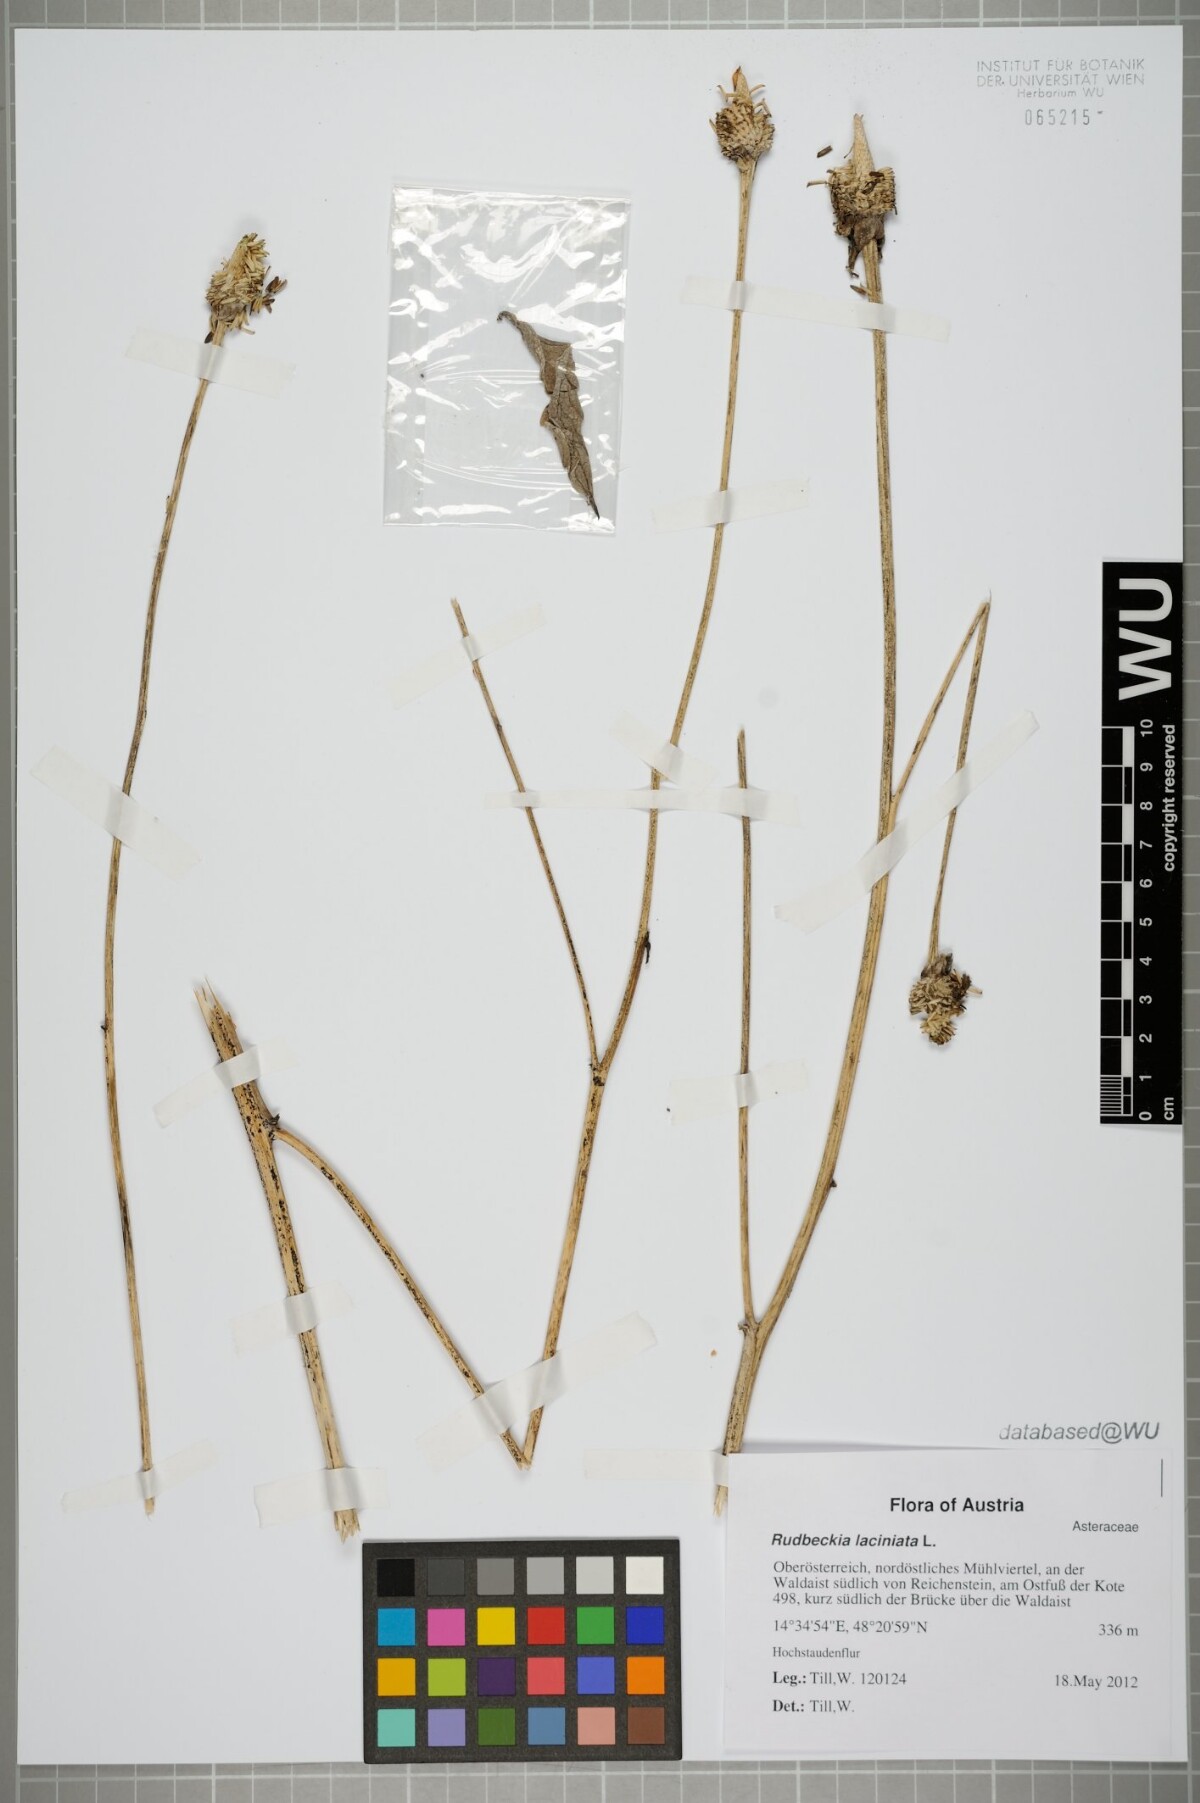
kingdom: Plantae
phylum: Tracheophyta
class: Magnoliopsida
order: Asterales
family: Asteraceae
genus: Rudbeckia
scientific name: Rudbeckia laciniata
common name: Coneflower
